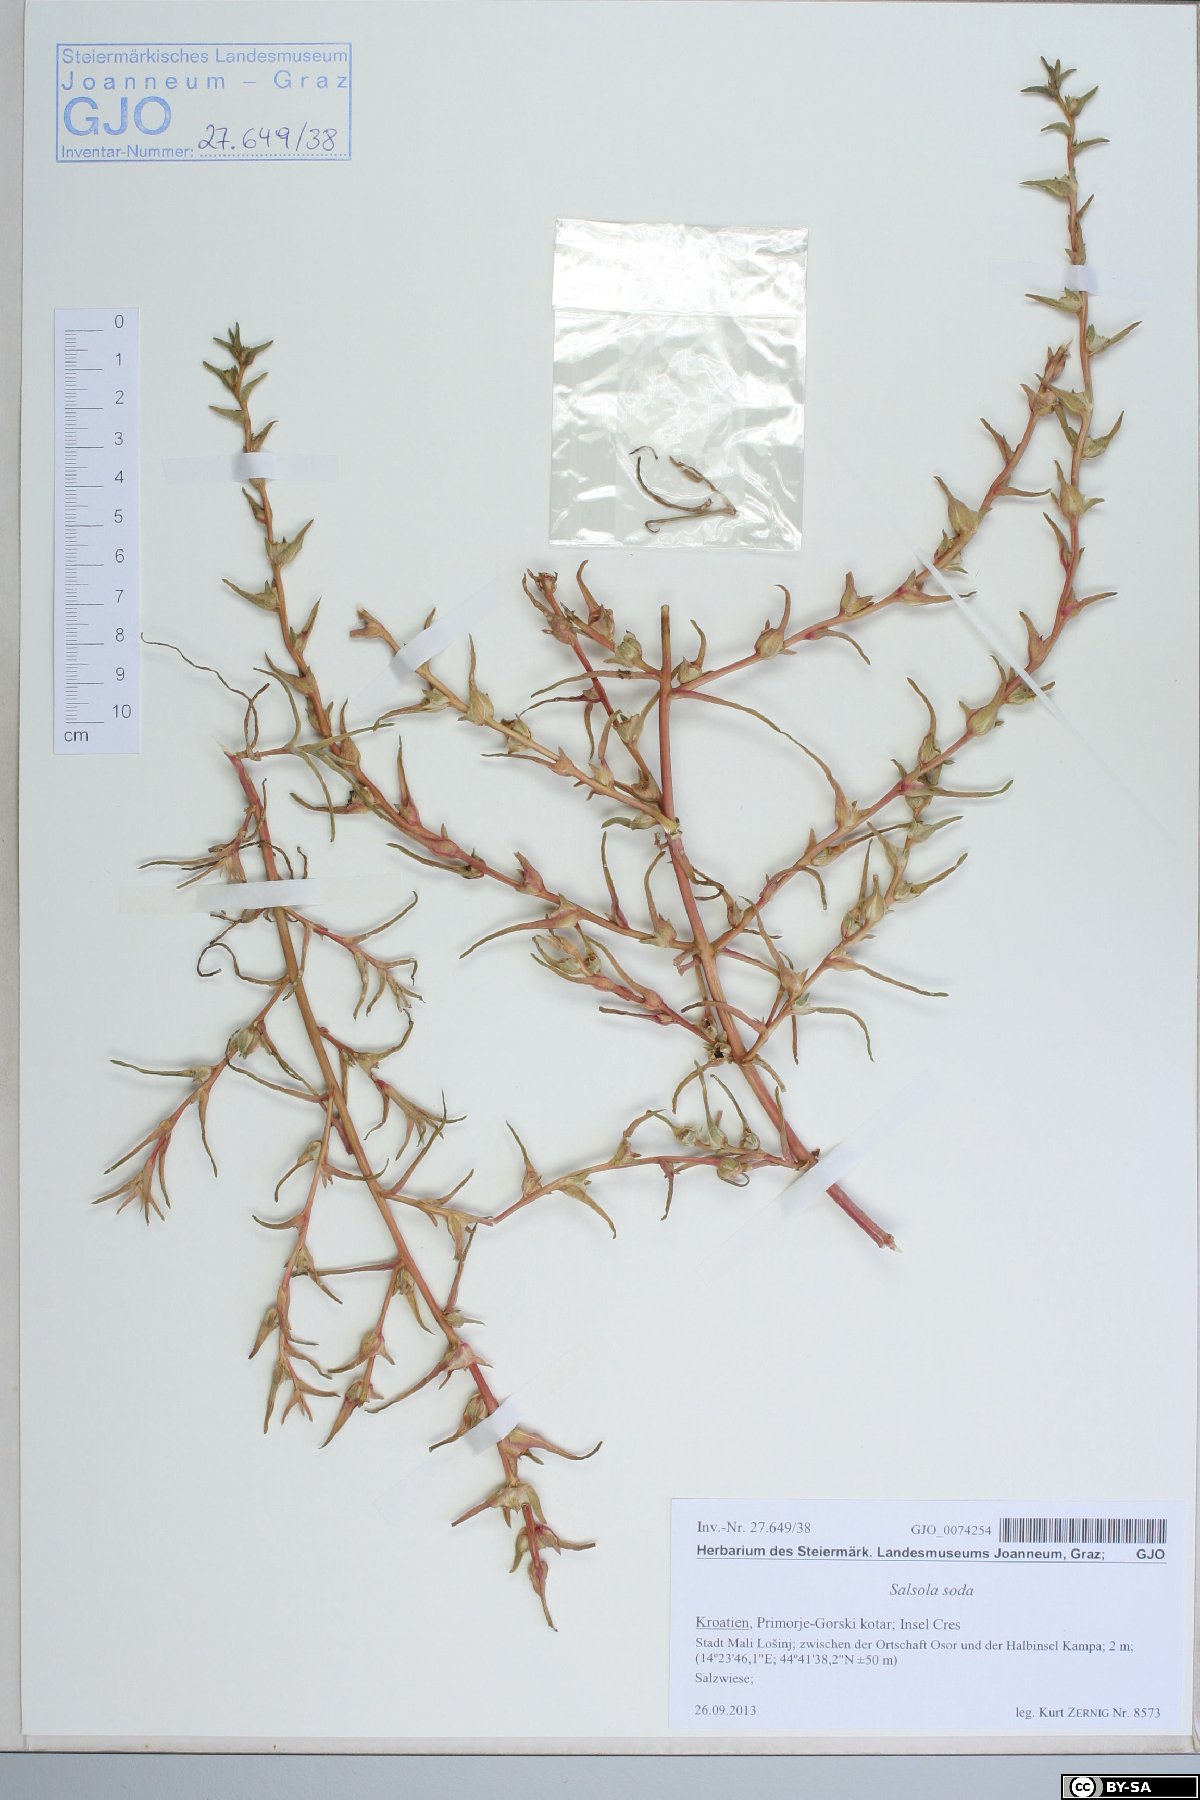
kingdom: Plantae
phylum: Tracheophyta
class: Magnoliopsida
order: Caryophyllales
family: Amaranthaceae
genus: Soda
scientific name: Soda inermis
